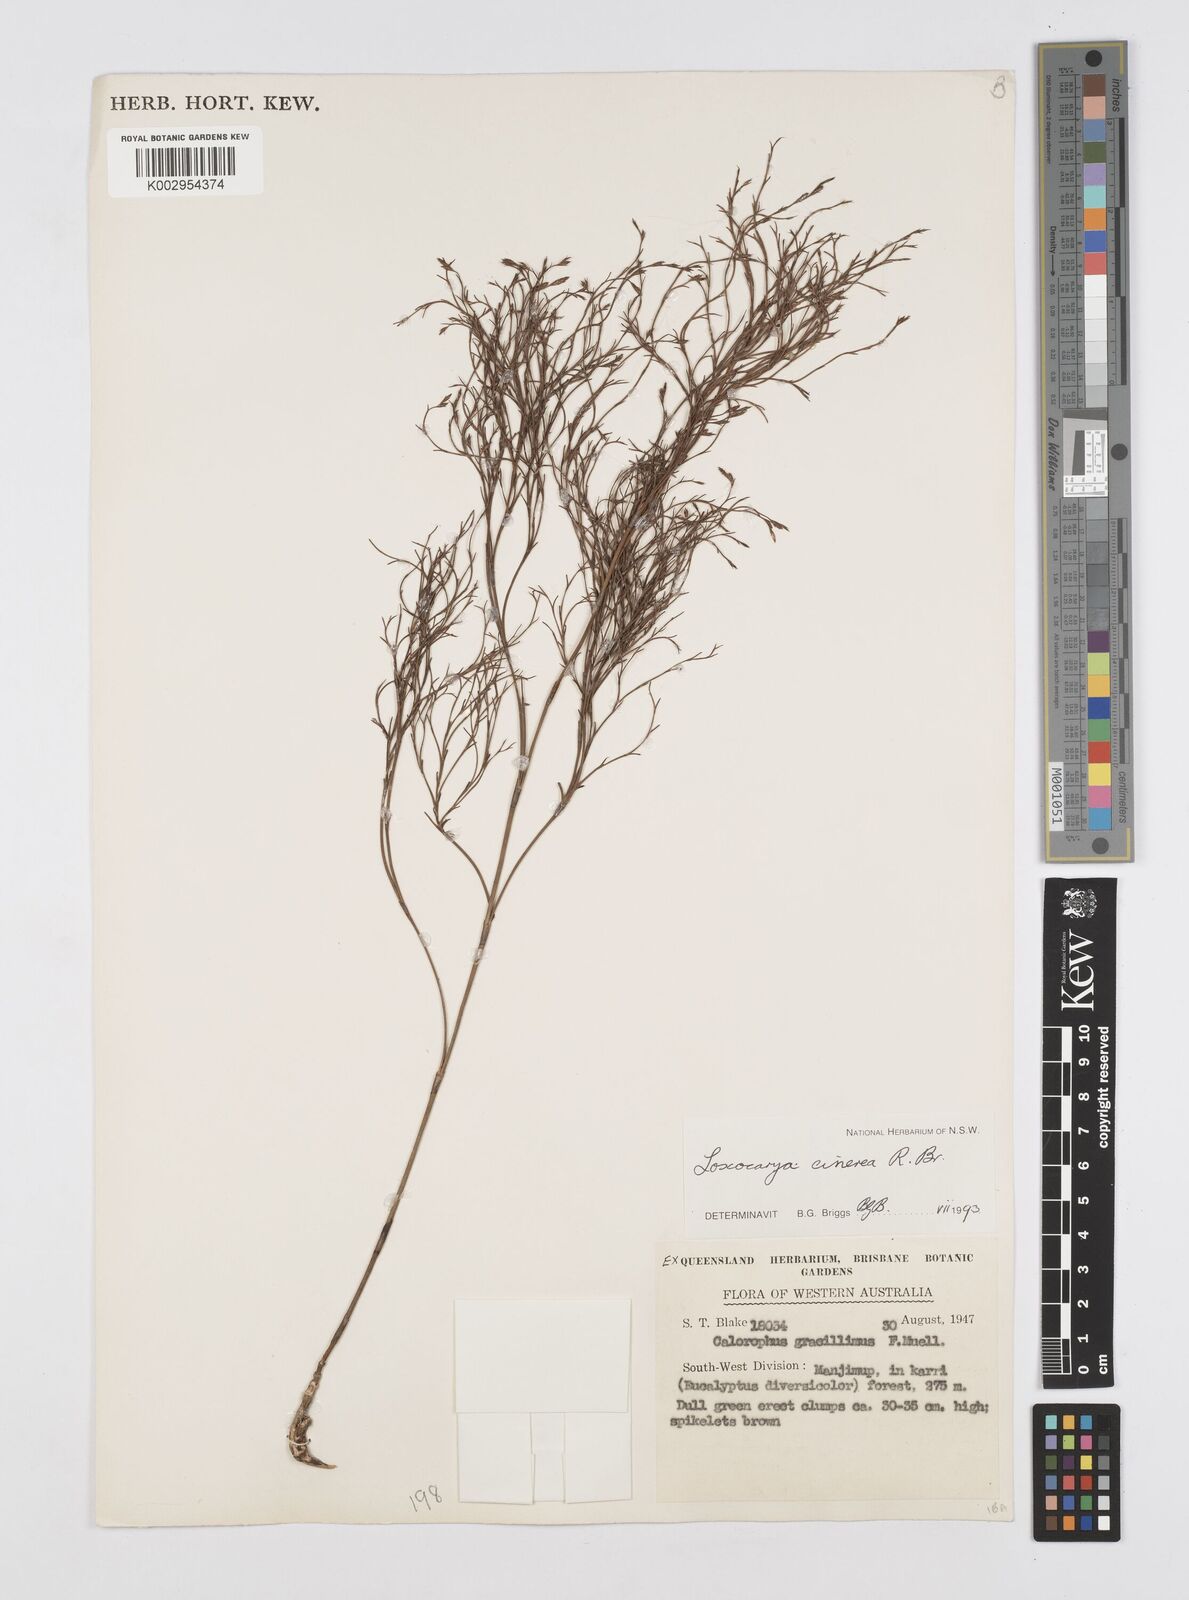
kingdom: Plantae
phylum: Tracheophyta
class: Liliopsida
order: Poales
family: Restionaceae
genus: Loxocarya
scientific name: Loxocarya cinerea
